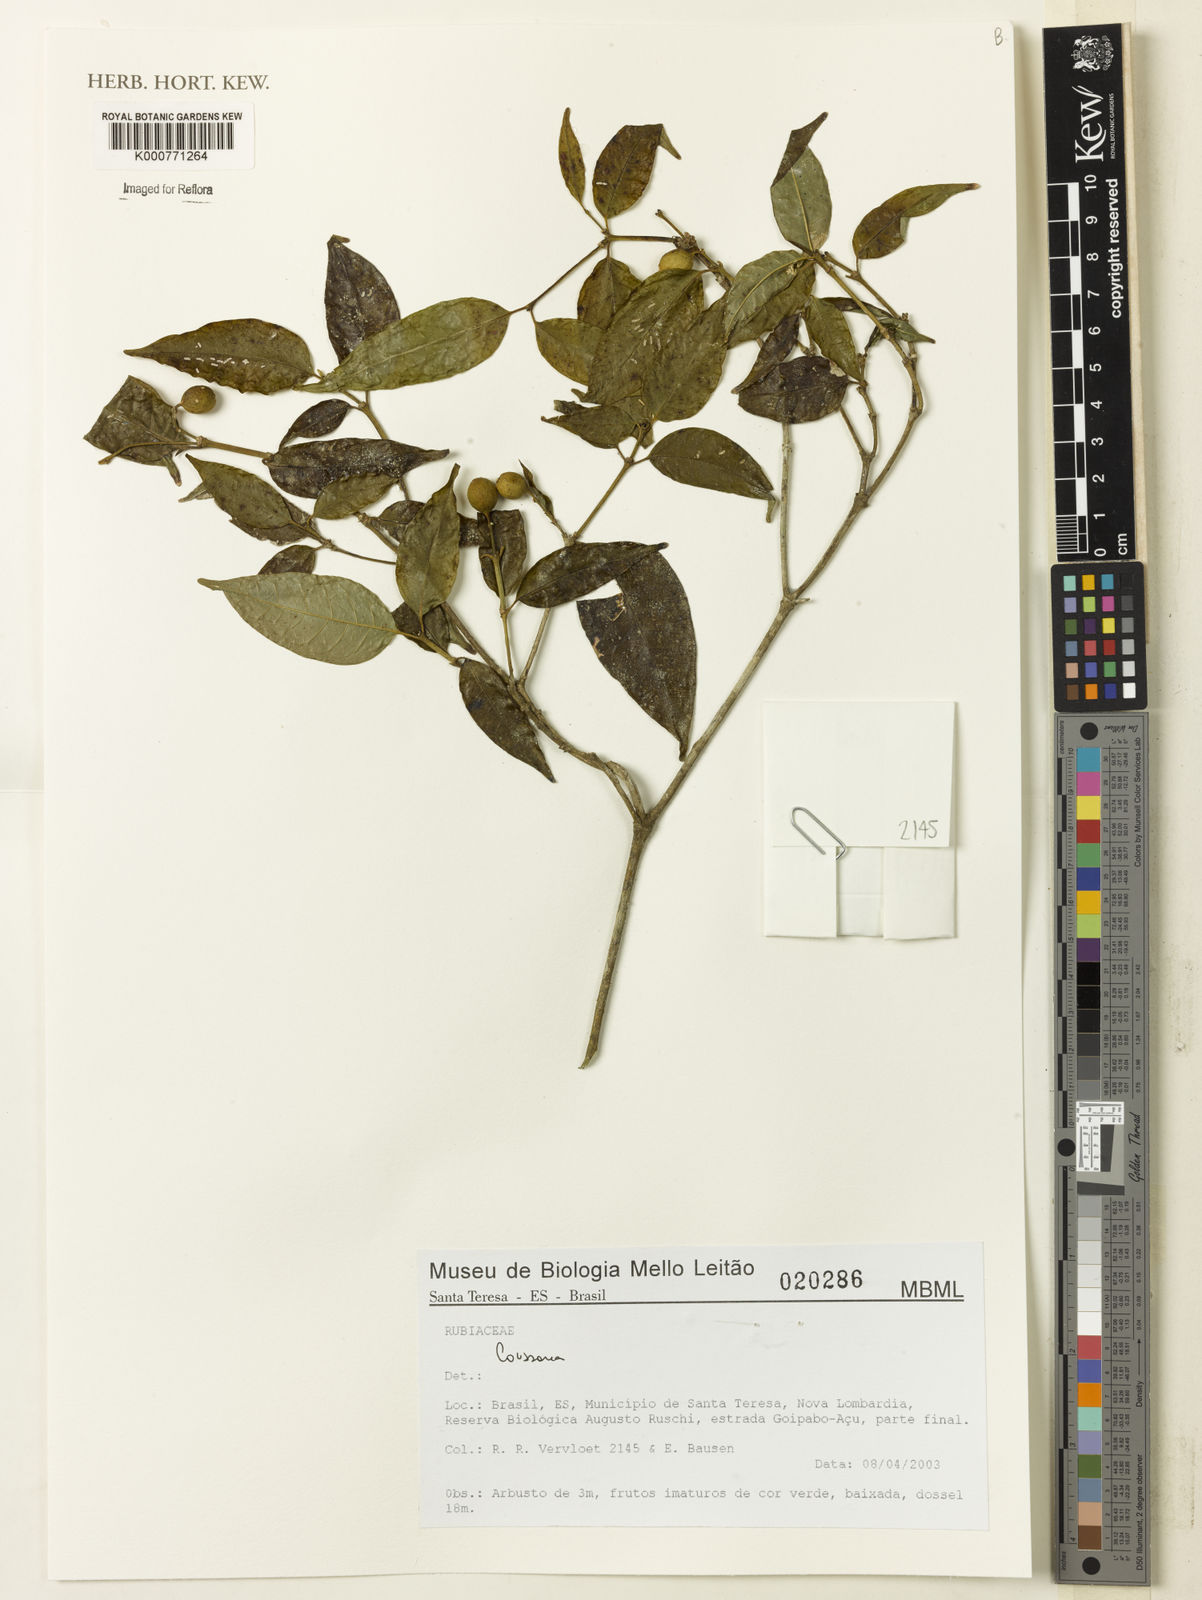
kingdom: Plantae
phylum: Tracheophyta
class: Magnoliopsida
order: Gentianales
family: Rubiaceae
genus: Coussarea
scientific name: Coussarea
